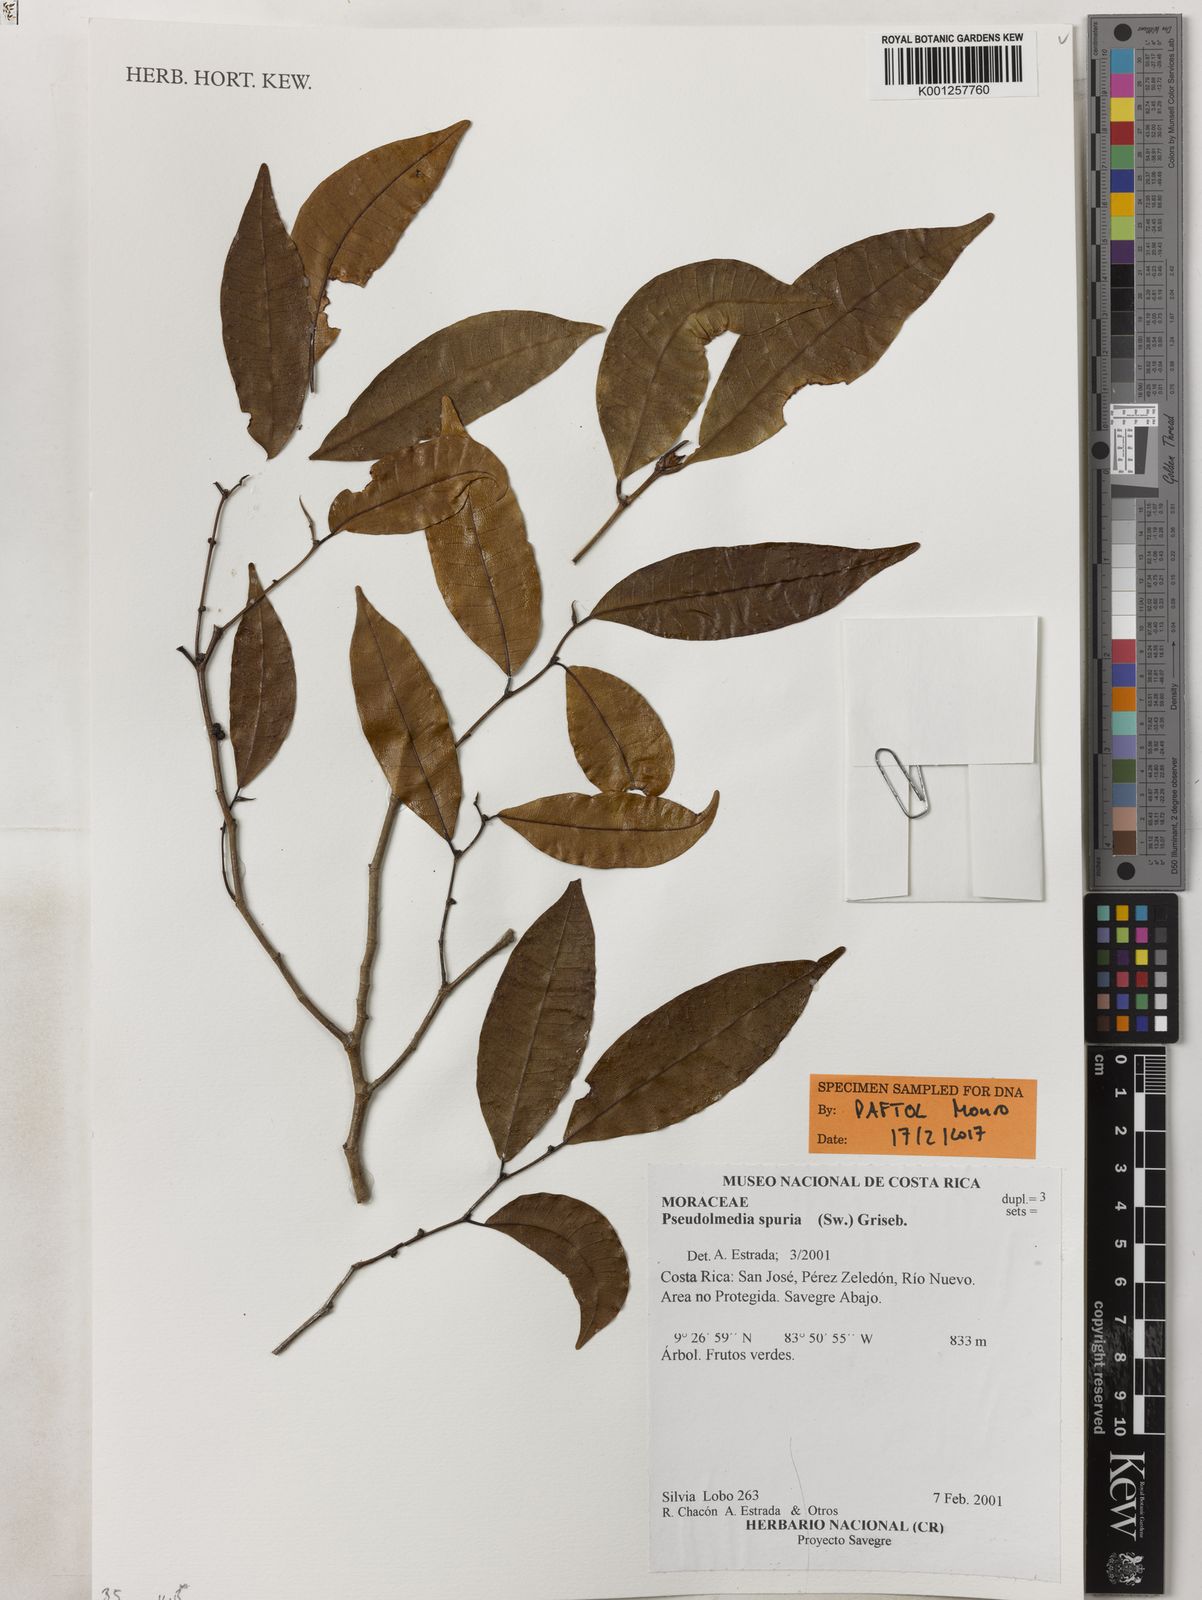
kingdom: Plantae
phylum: Tracheophyta
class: Magnoliopsida
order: Rosales
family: Moraceae
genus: Pseudolmedia
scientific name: Pseudolmedia spuria
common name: Bastard-cherry
